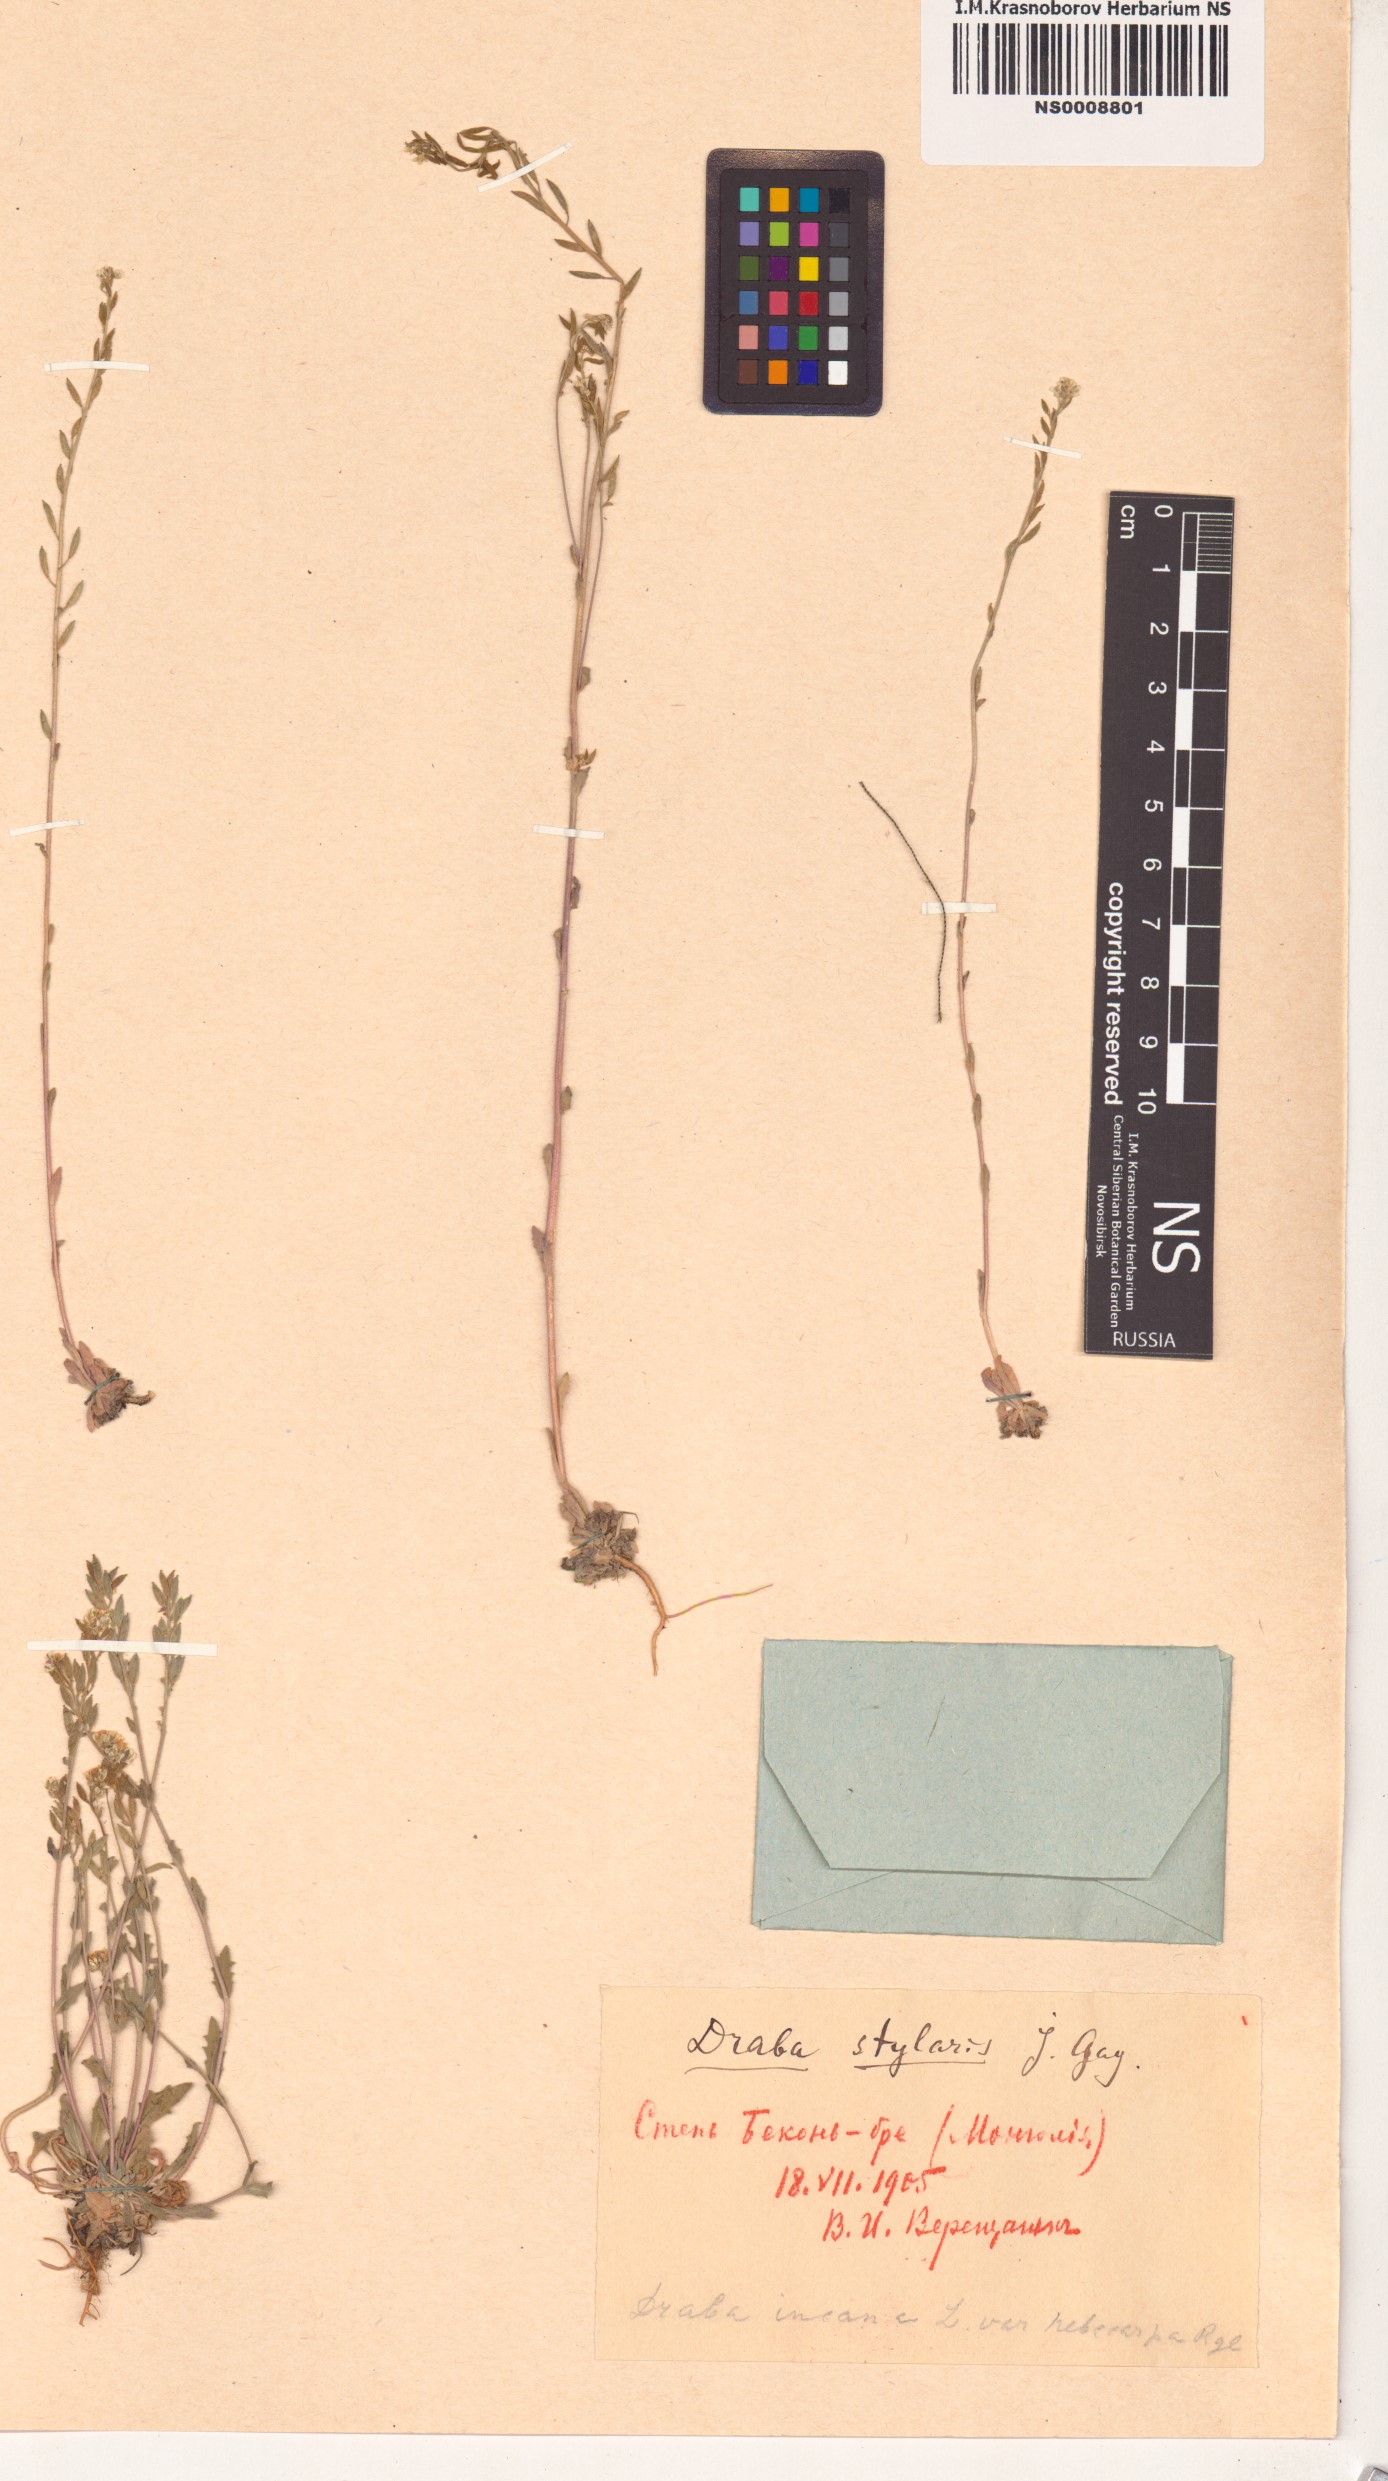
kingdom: Plantae
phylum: Tracheophyta
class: Magnoliopsida
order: Brassicales
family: Brassicaceae
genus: Draba
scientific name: Draba thomasii
